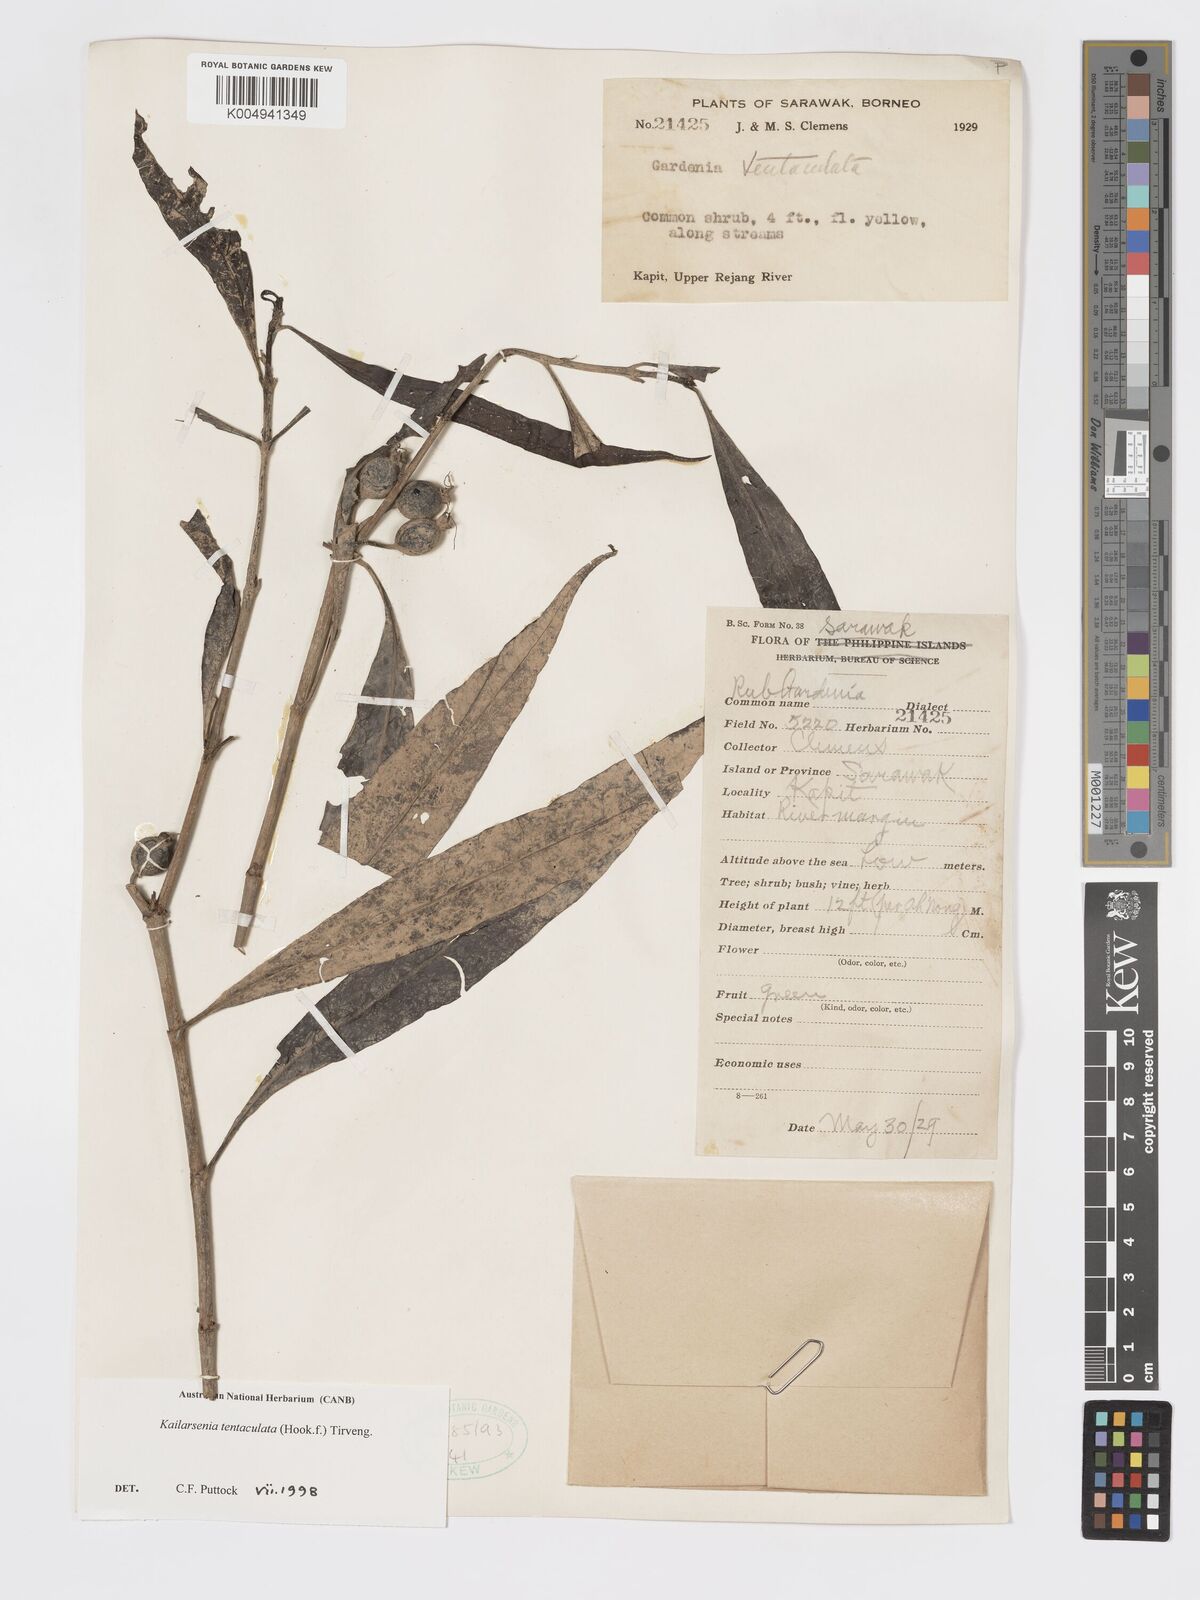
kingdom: Plantae
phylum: Tracheophyta
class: Magnoliopsida
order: Gentianales
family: Rubiaceae
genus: Kailarsenia
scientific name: Kailarsenia tentaculata
